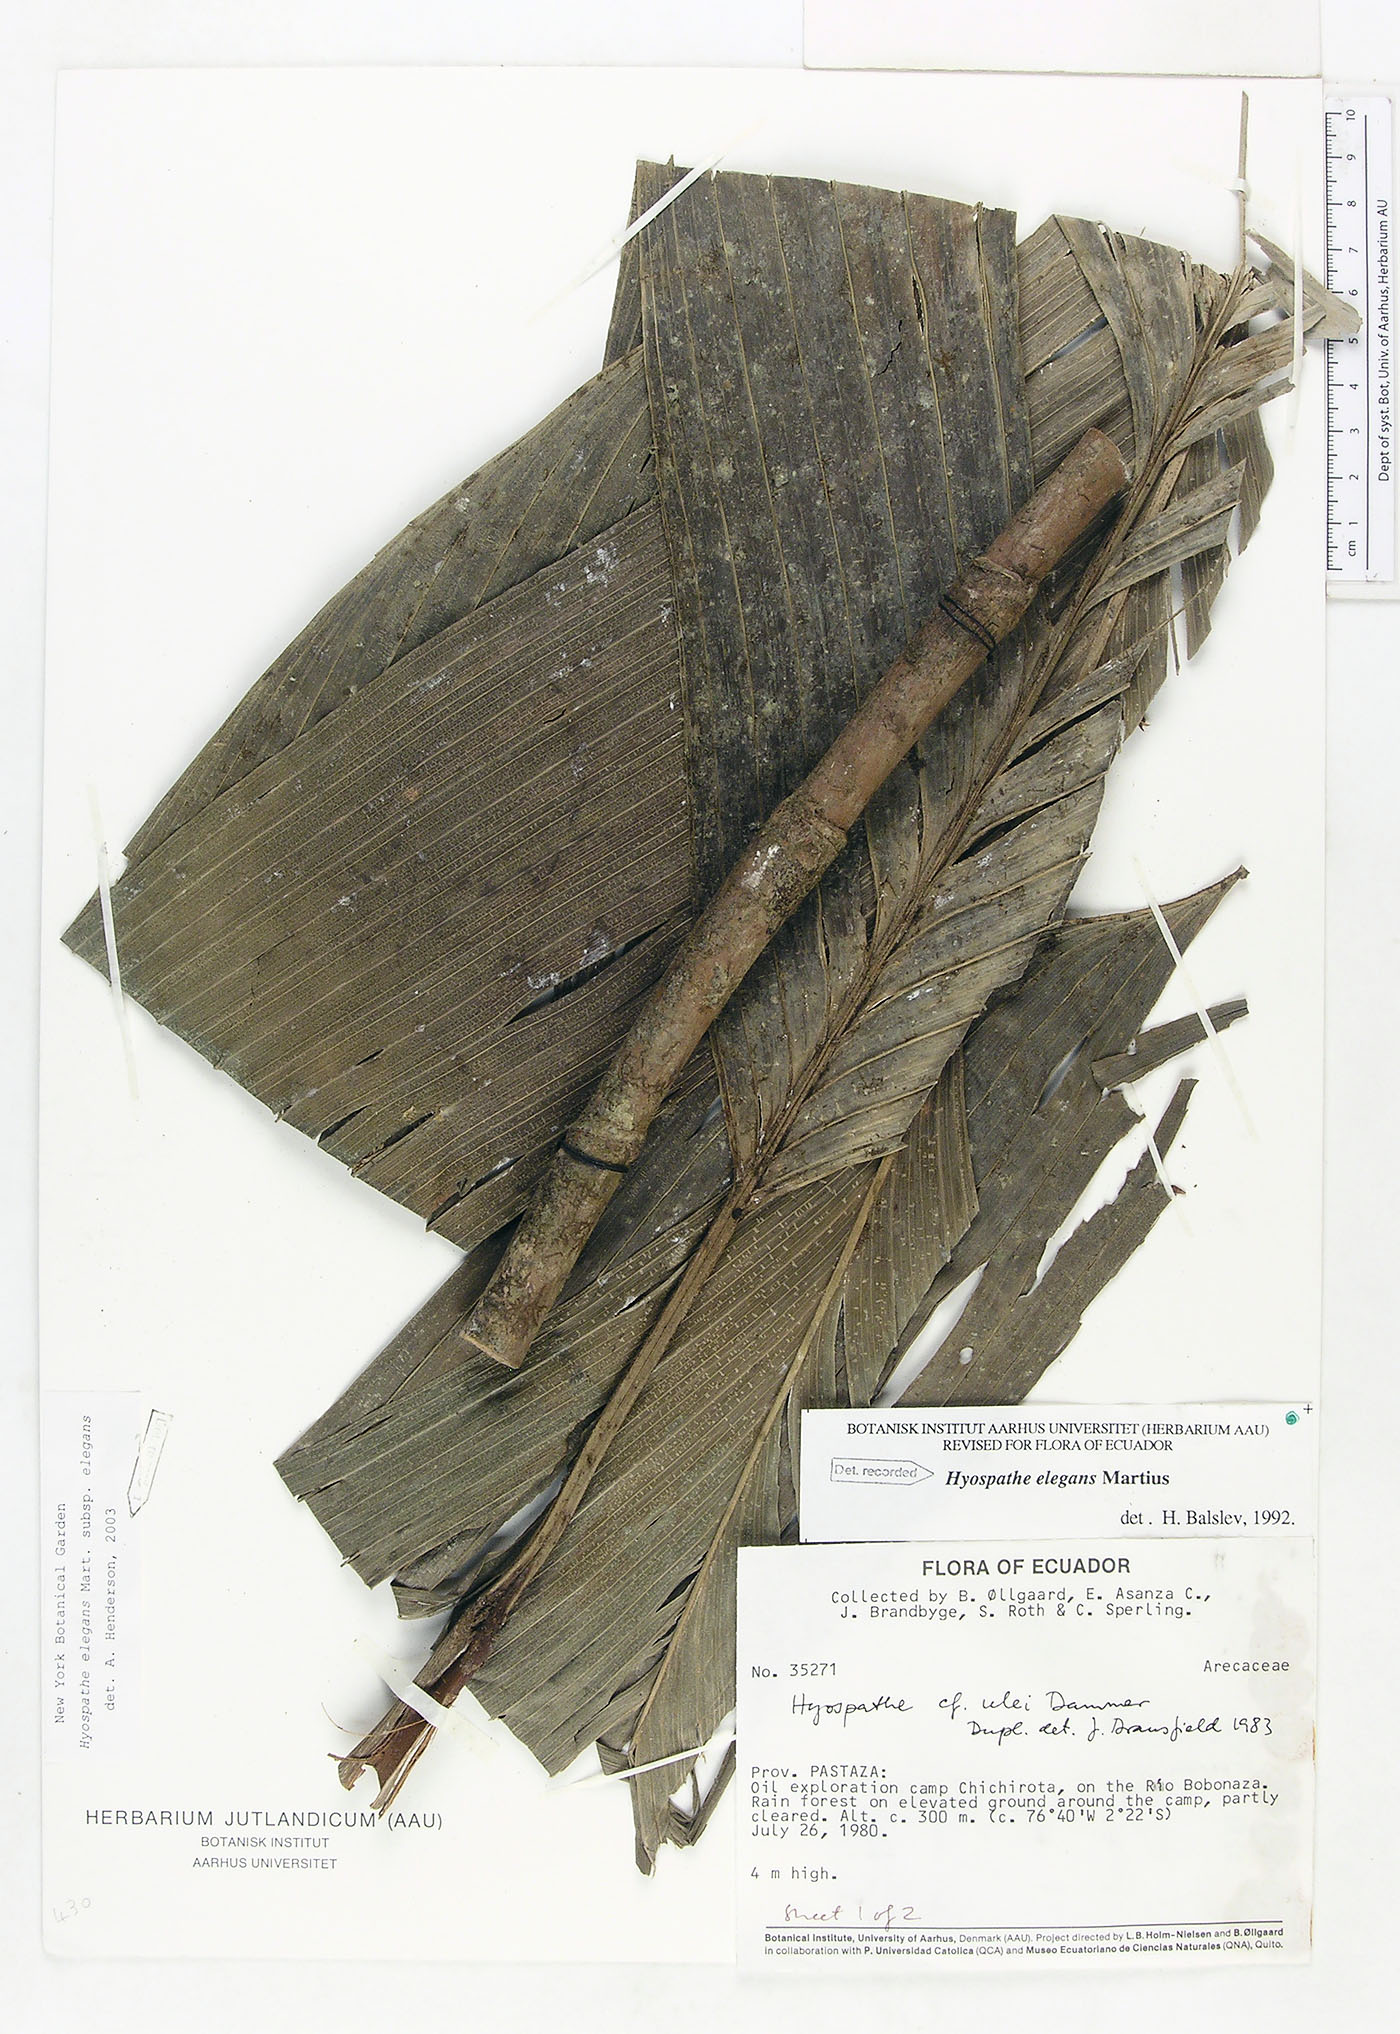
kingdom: Plantae
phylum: Tracheophyta
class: Liliopsida
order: Arecales
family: Arecaceae
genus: Hyospathe
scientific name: Hyospathe elegans
